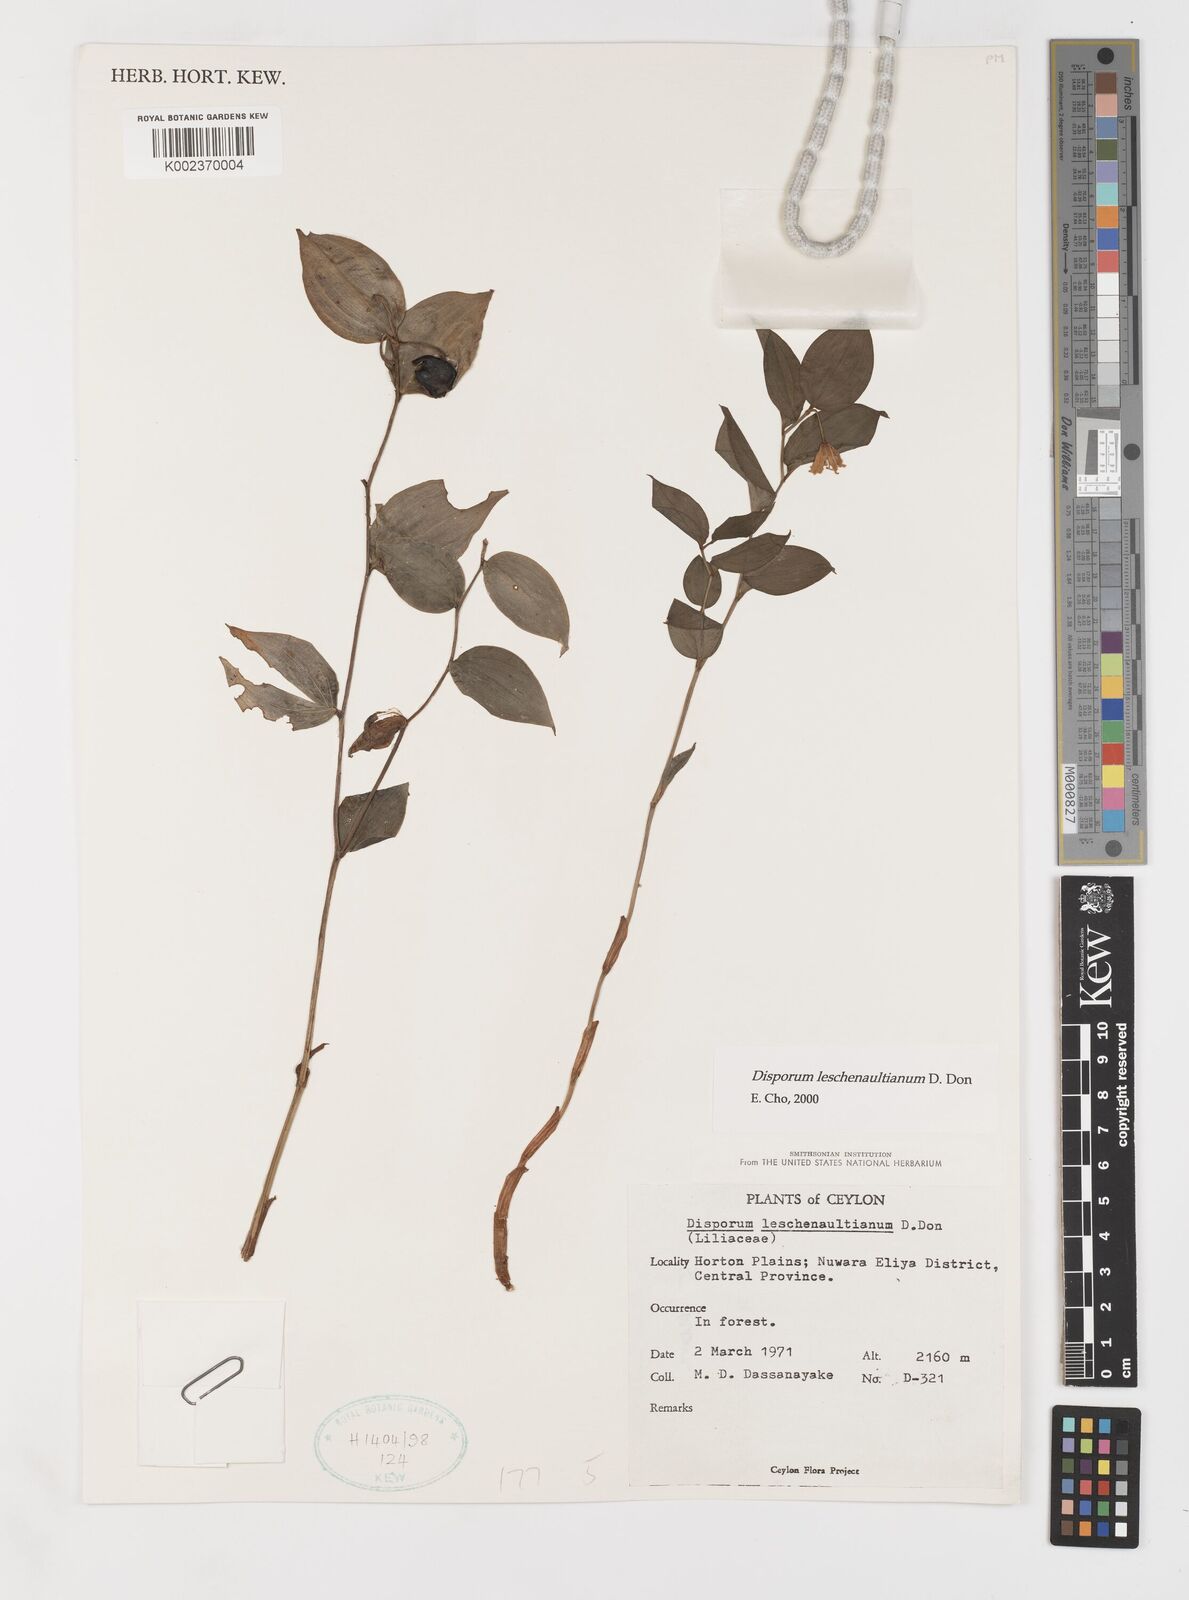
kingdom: Plantae
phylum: Tracheophyta
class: Liliopsida
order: Liliales
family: Colchicaceae
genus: Disporum
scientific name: Disporum cantoniense
